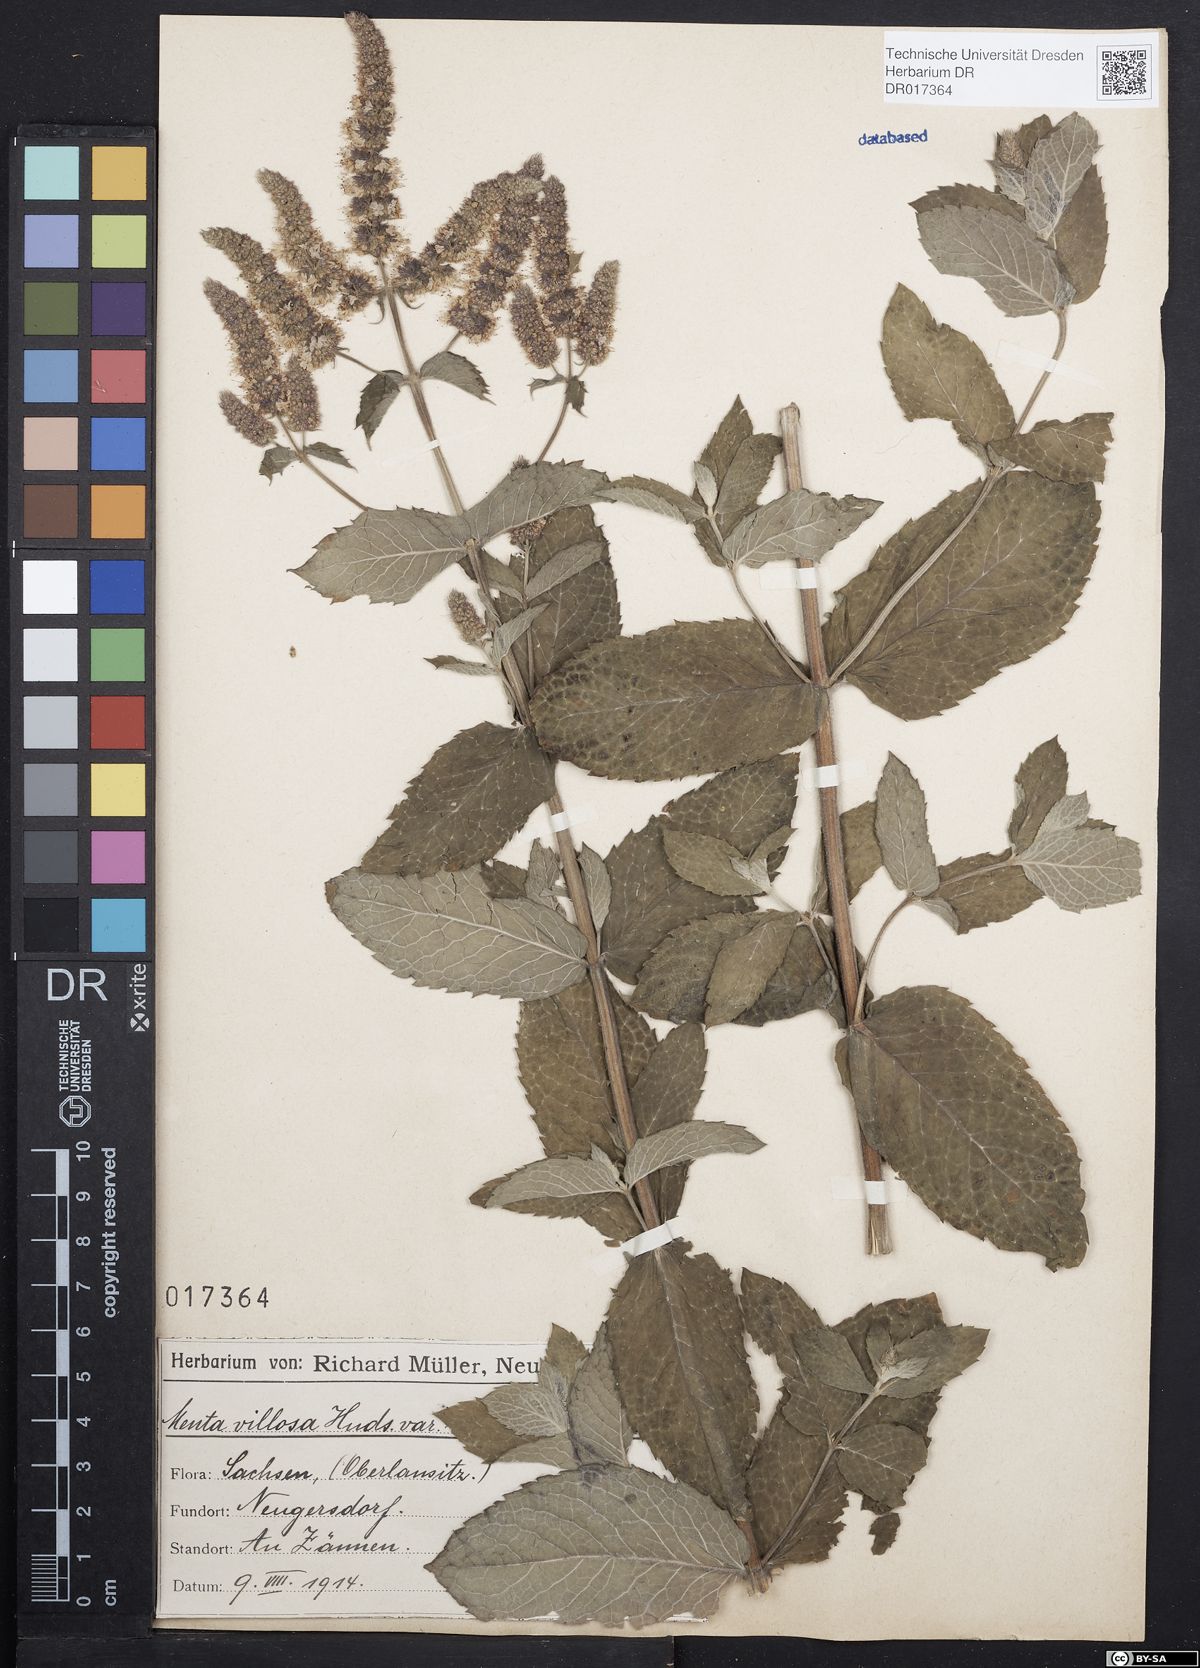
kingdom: Plantae
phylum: Tracheophyta
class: Magnoliopsida
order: Lamiales
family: Lamiaceae
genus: Mentha
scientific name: Mentha villosa
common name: Apple mint
